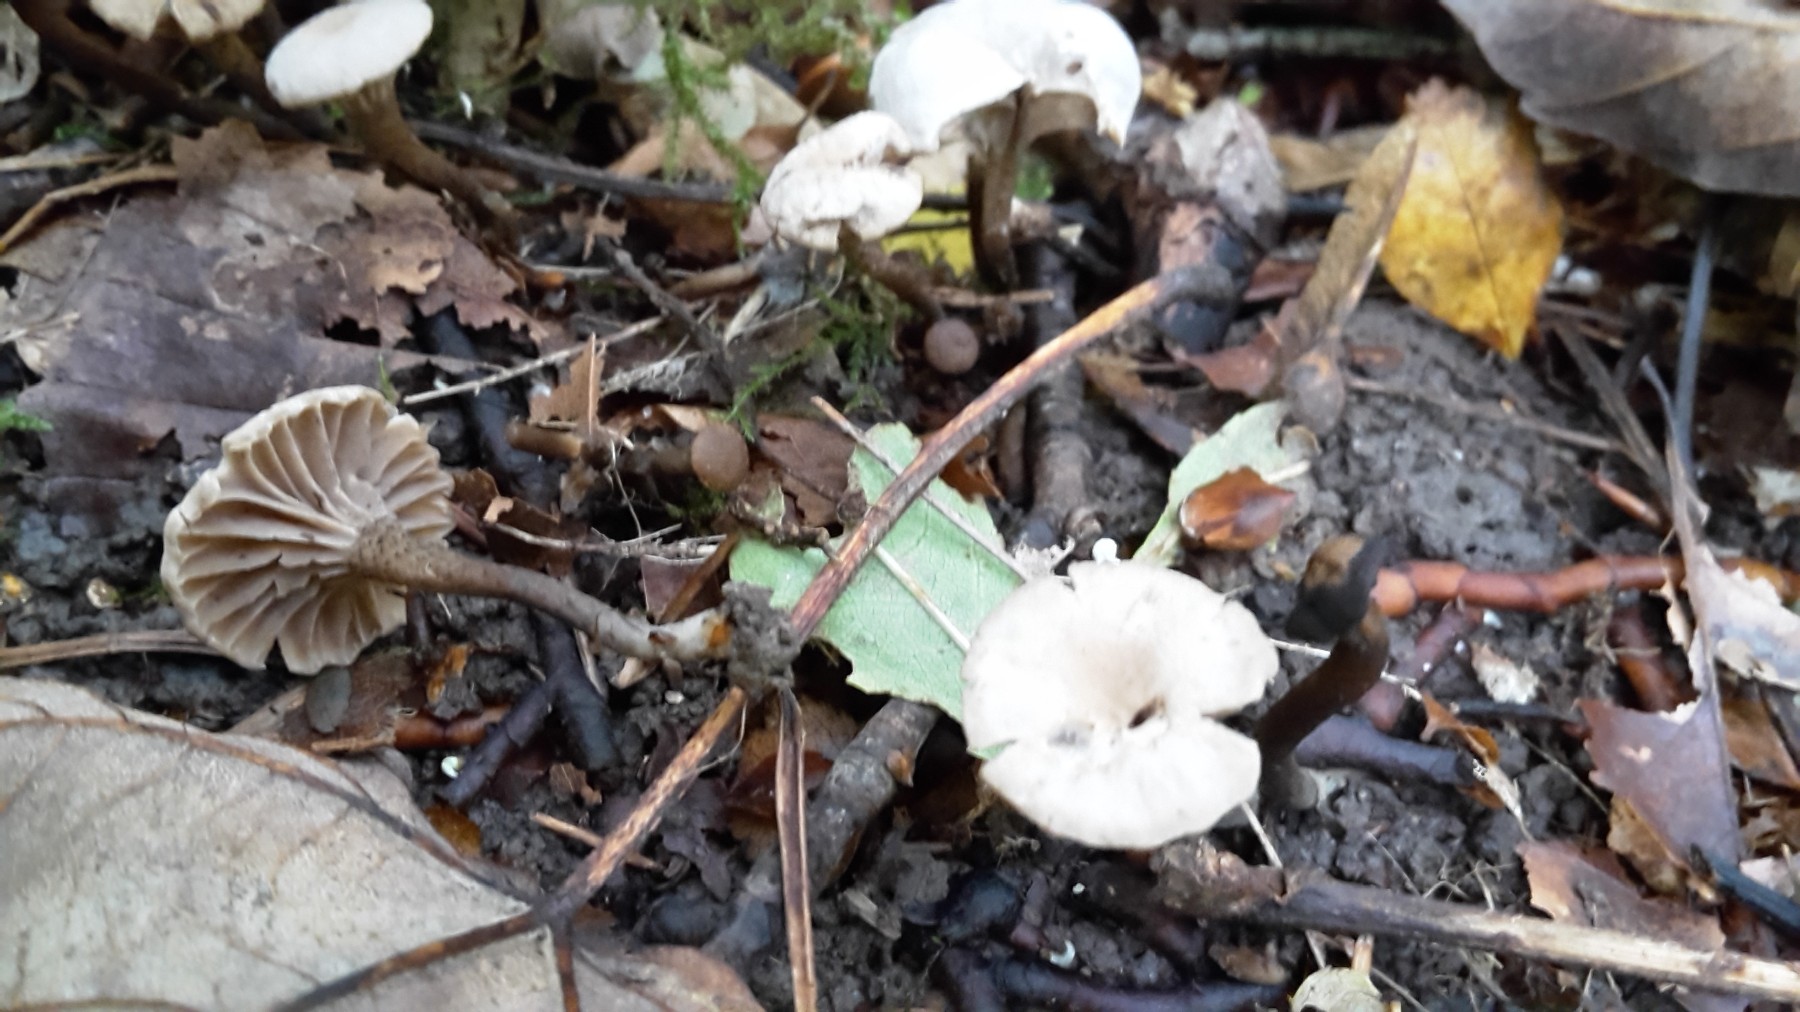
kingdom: Fungi
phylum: Basidiomycota
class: Agaricomycetes
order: Agaricales
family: Clavariaceae
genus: Hodophilus
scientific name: Hodophilus atropunctus
